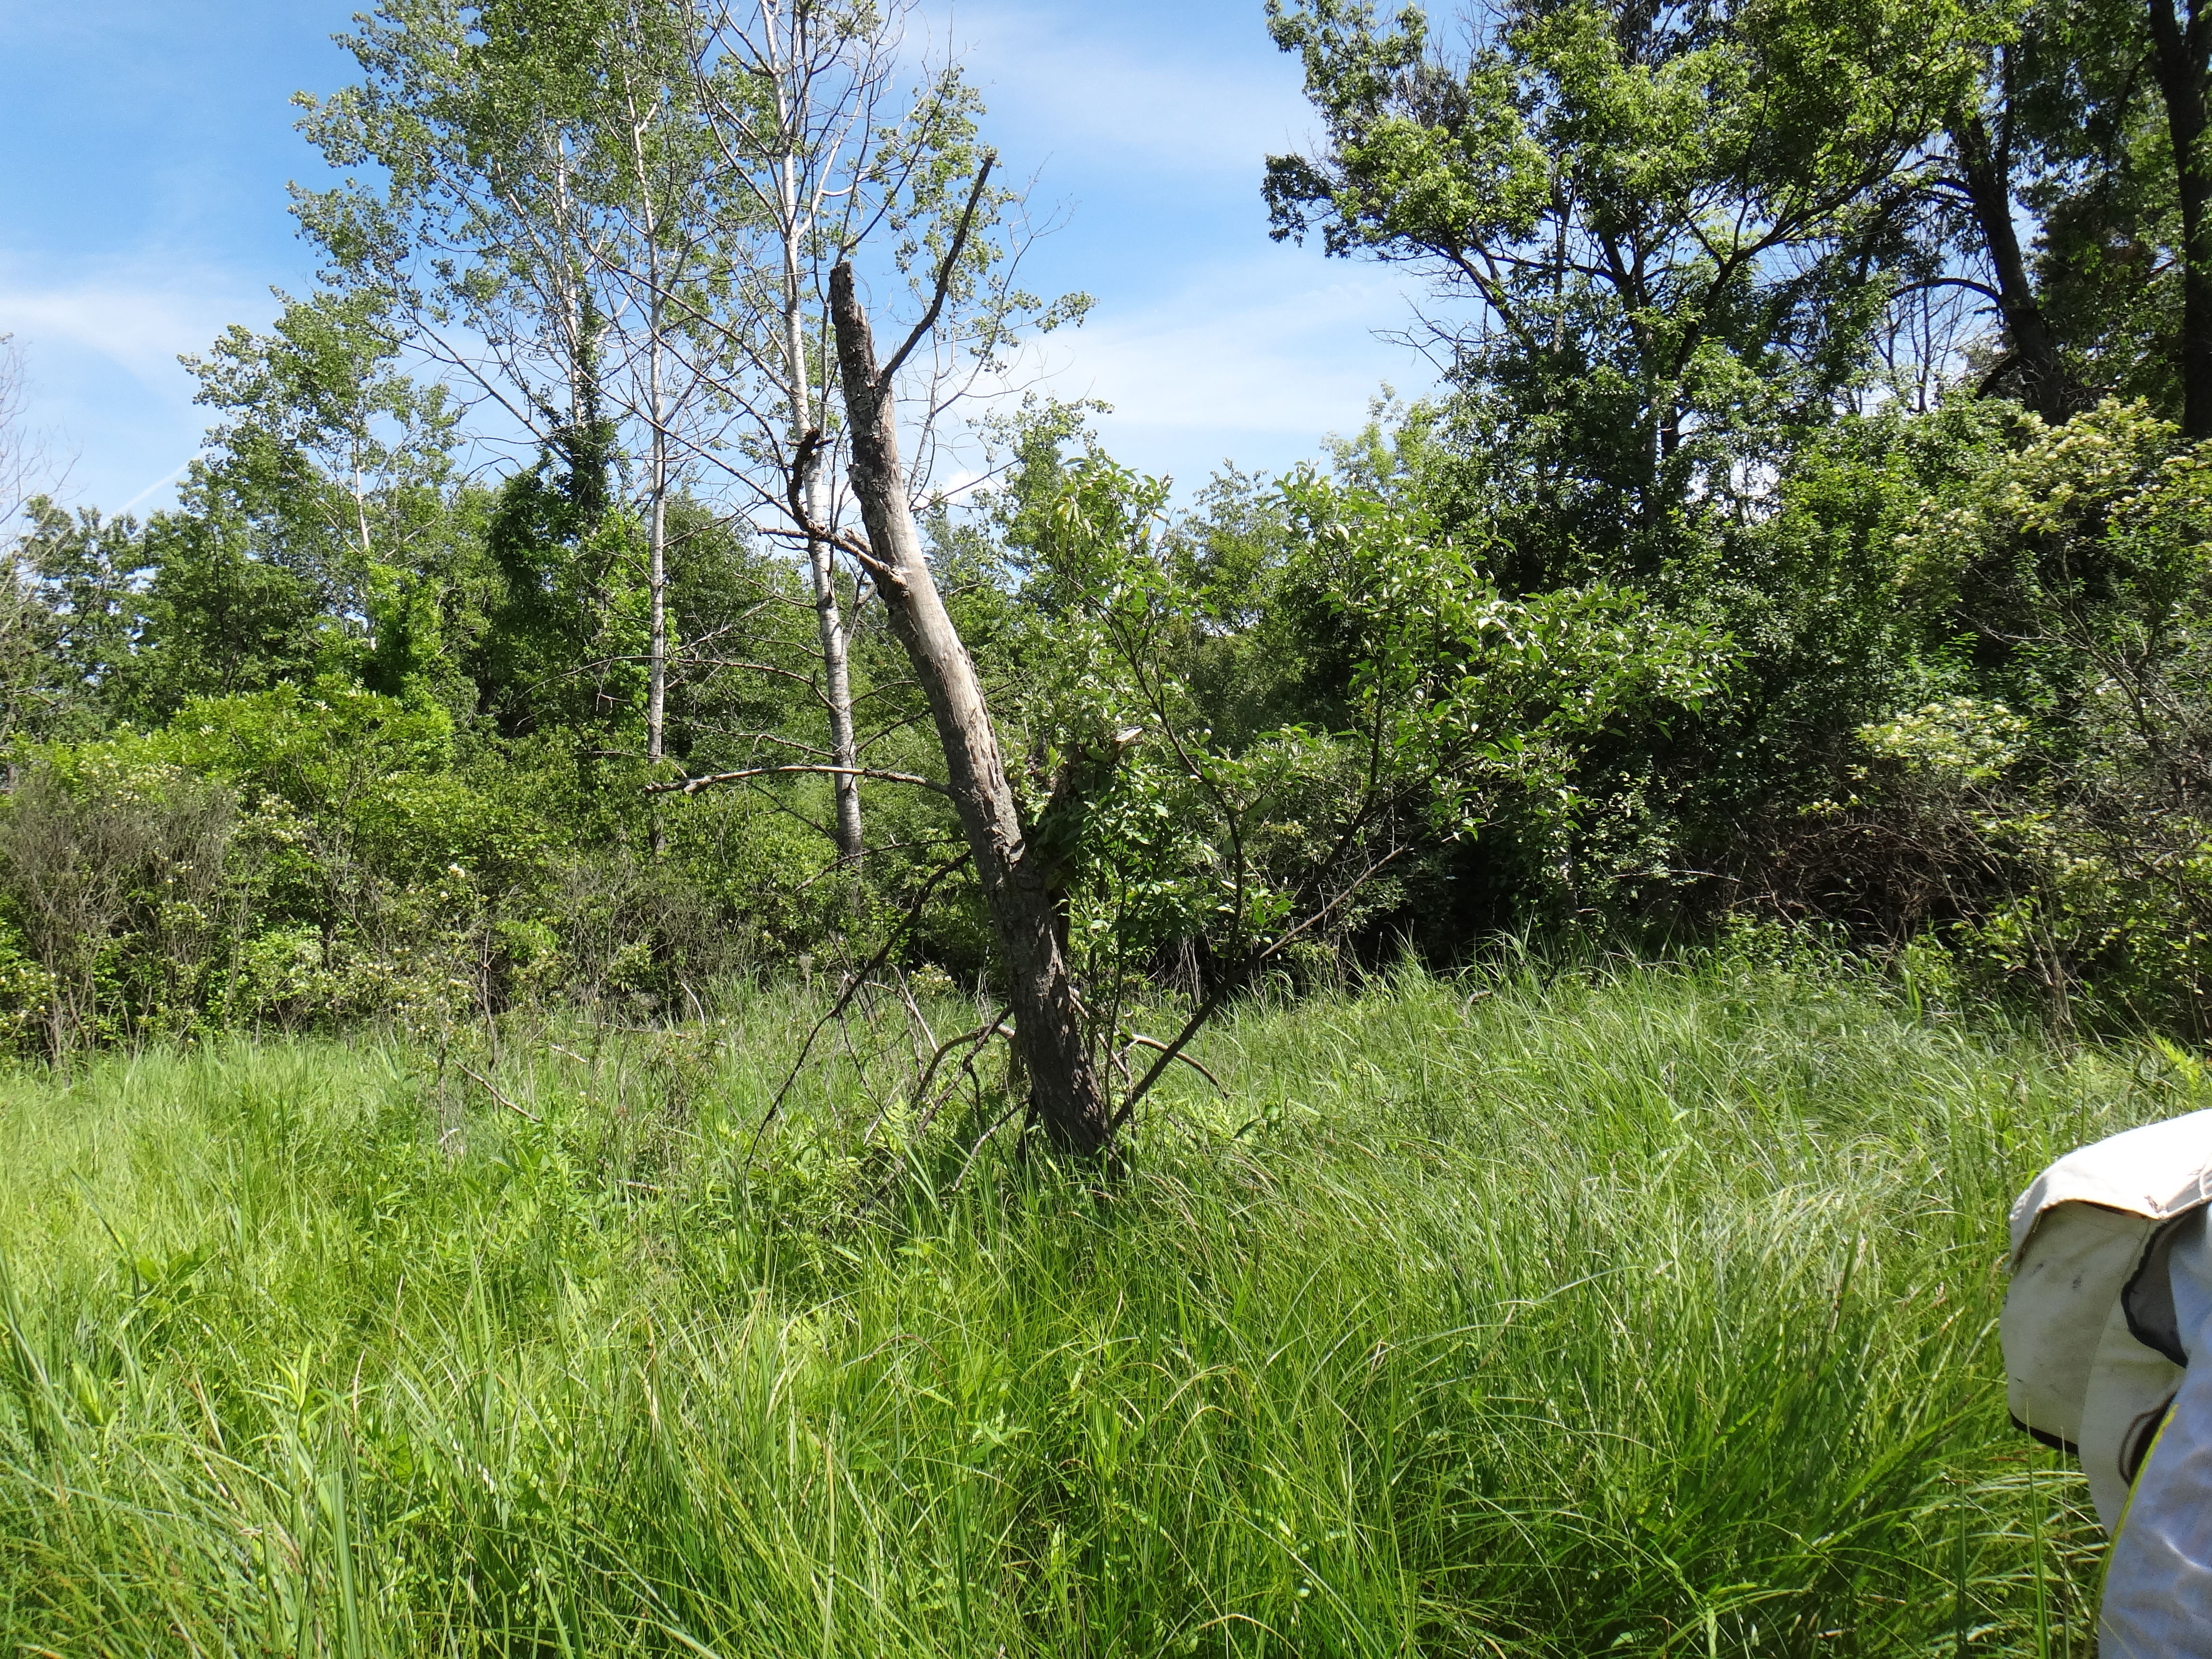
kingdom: Plantae
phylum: Tracheophyta
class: Polypodiopsida
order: Polypodiales
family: Onocleaceae
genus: Onoclea
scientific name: Onoclea sensibilis
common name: Sensitive fern
